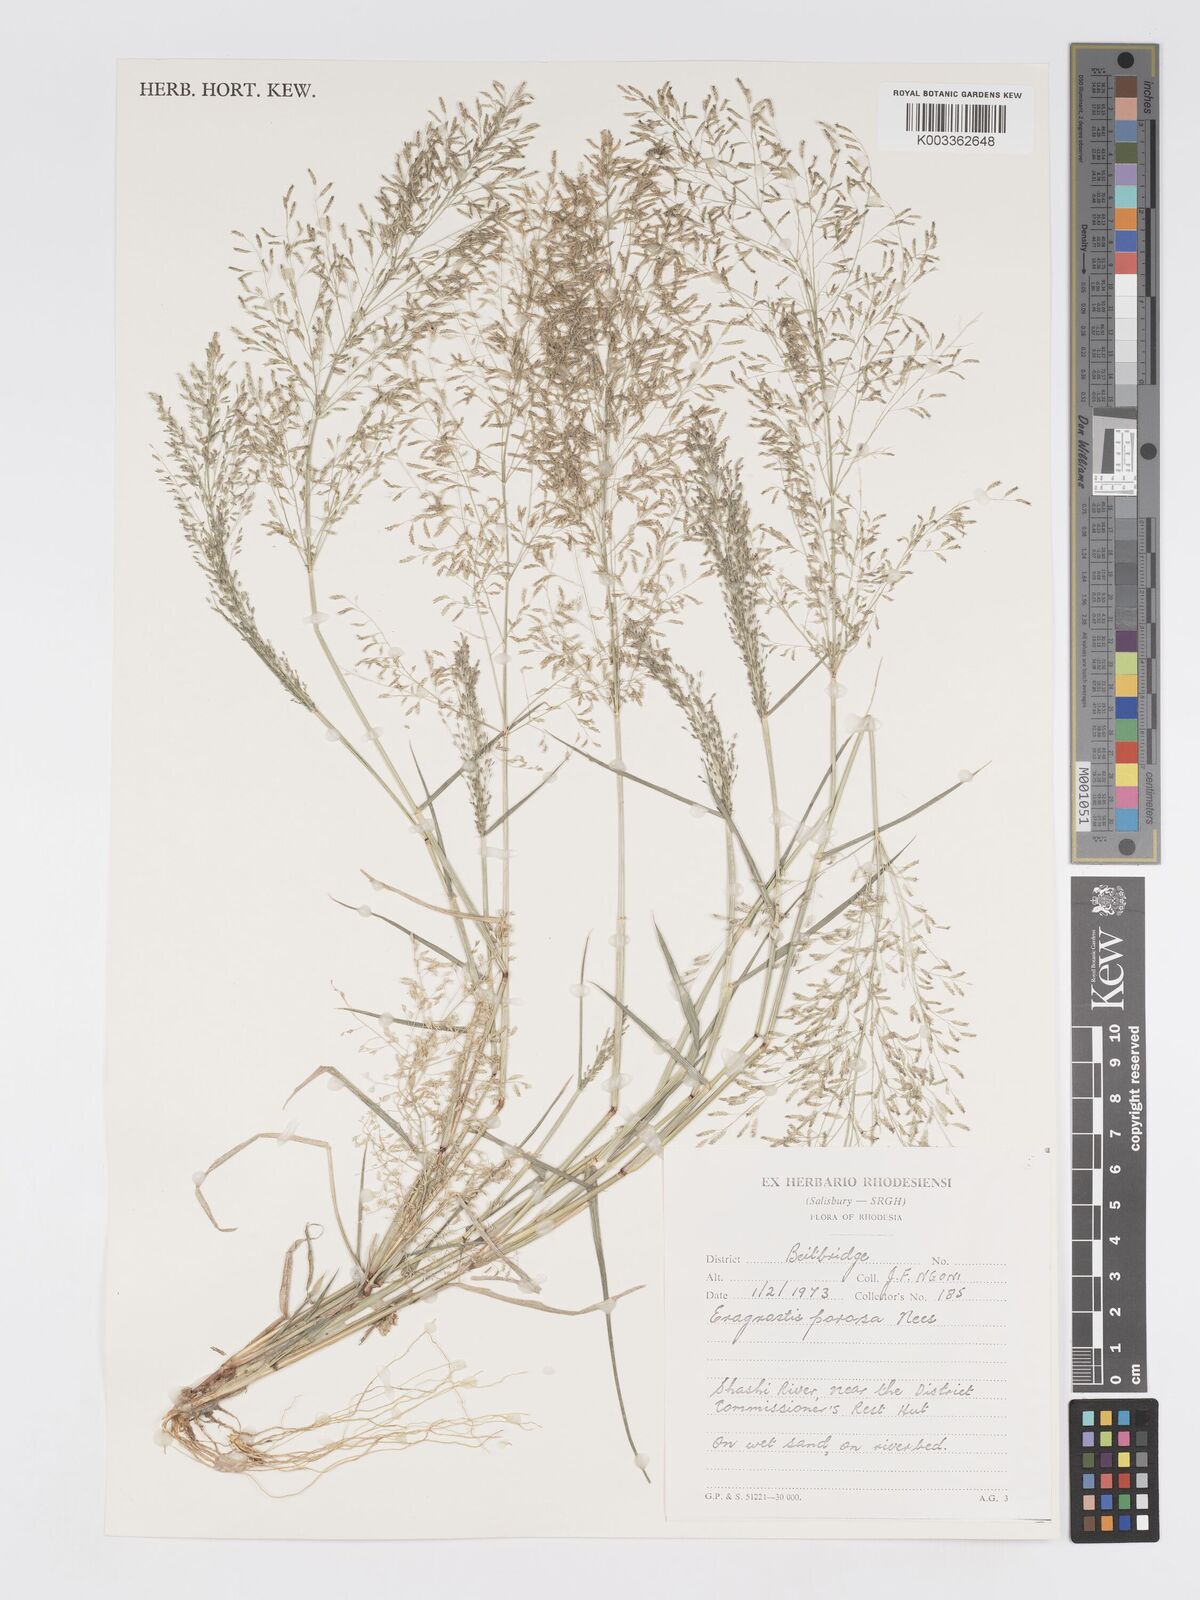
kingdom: Plantae
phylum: Tracheophyta
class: Liliopsida
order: Poales
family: Poaceae
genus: Eragrostis
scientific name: Eragrostis porosa
